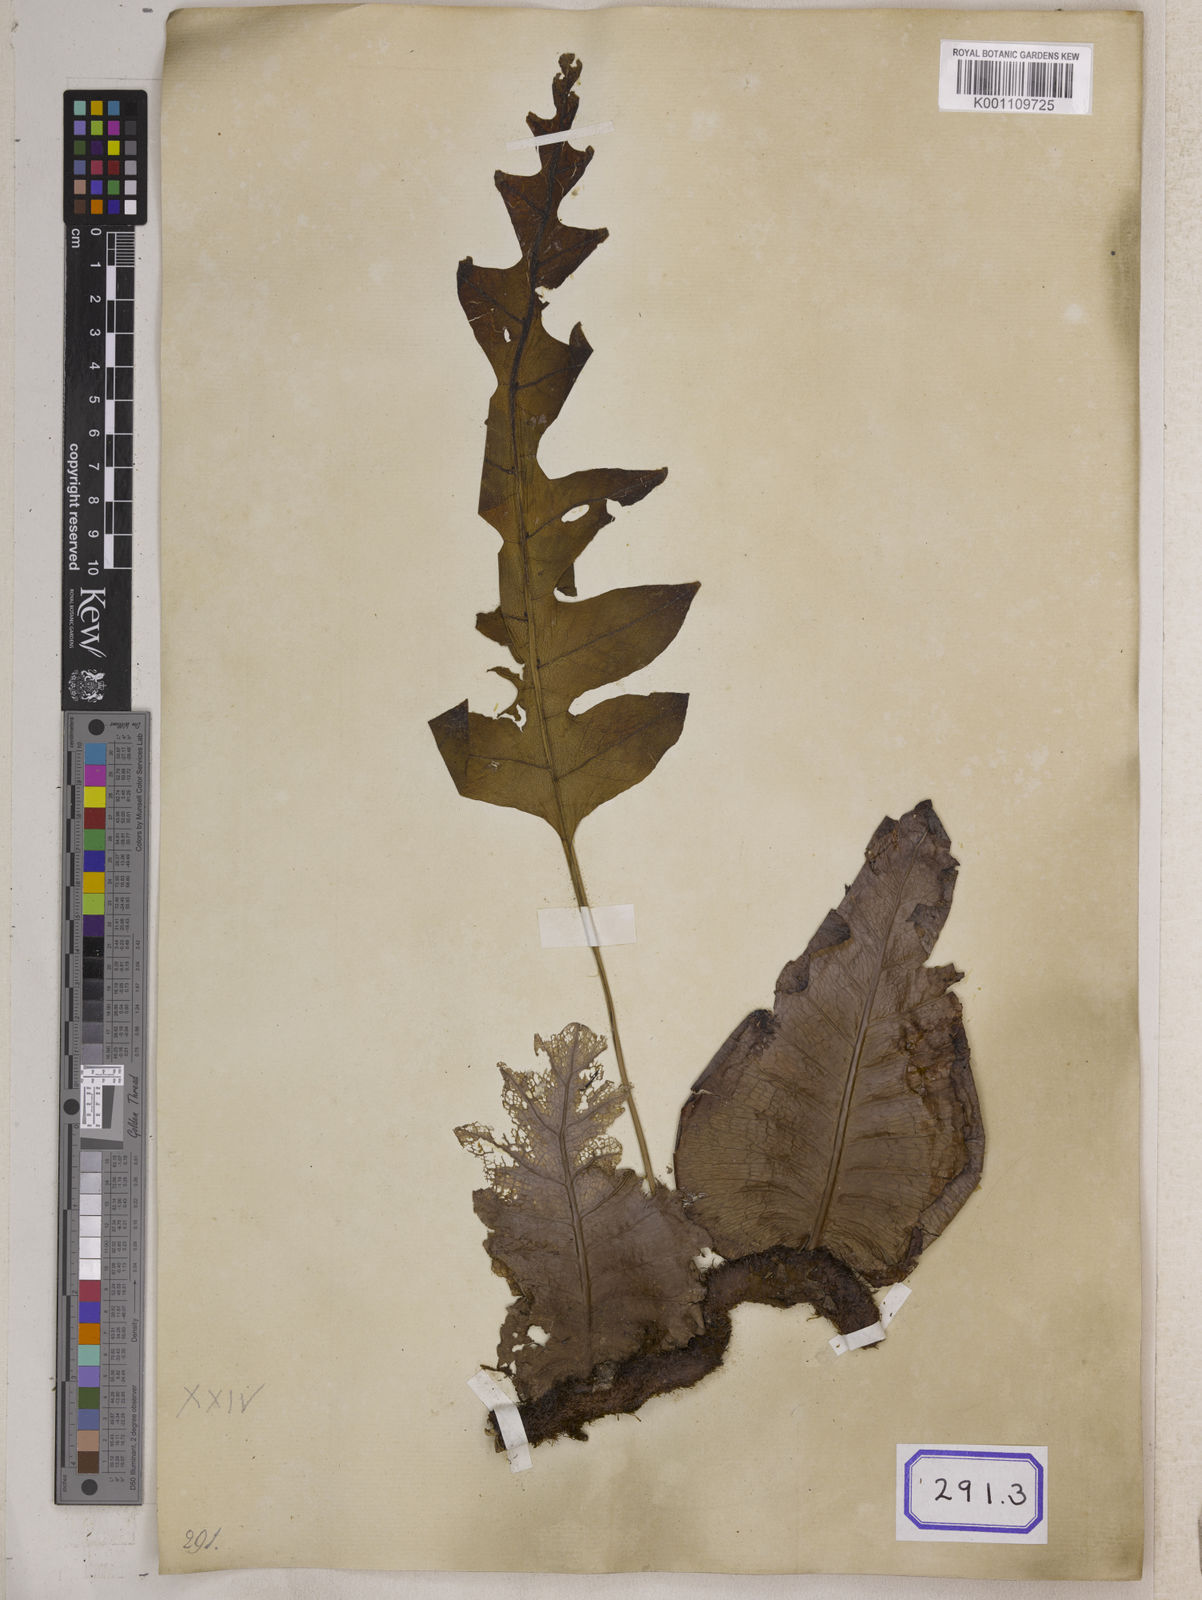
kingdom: Plantae
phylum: Tracheophyta
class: Polypodiopsida
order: Polypodiales
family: Polypodiaceae
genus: Drynaria
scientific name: Drynaria quercifolia
